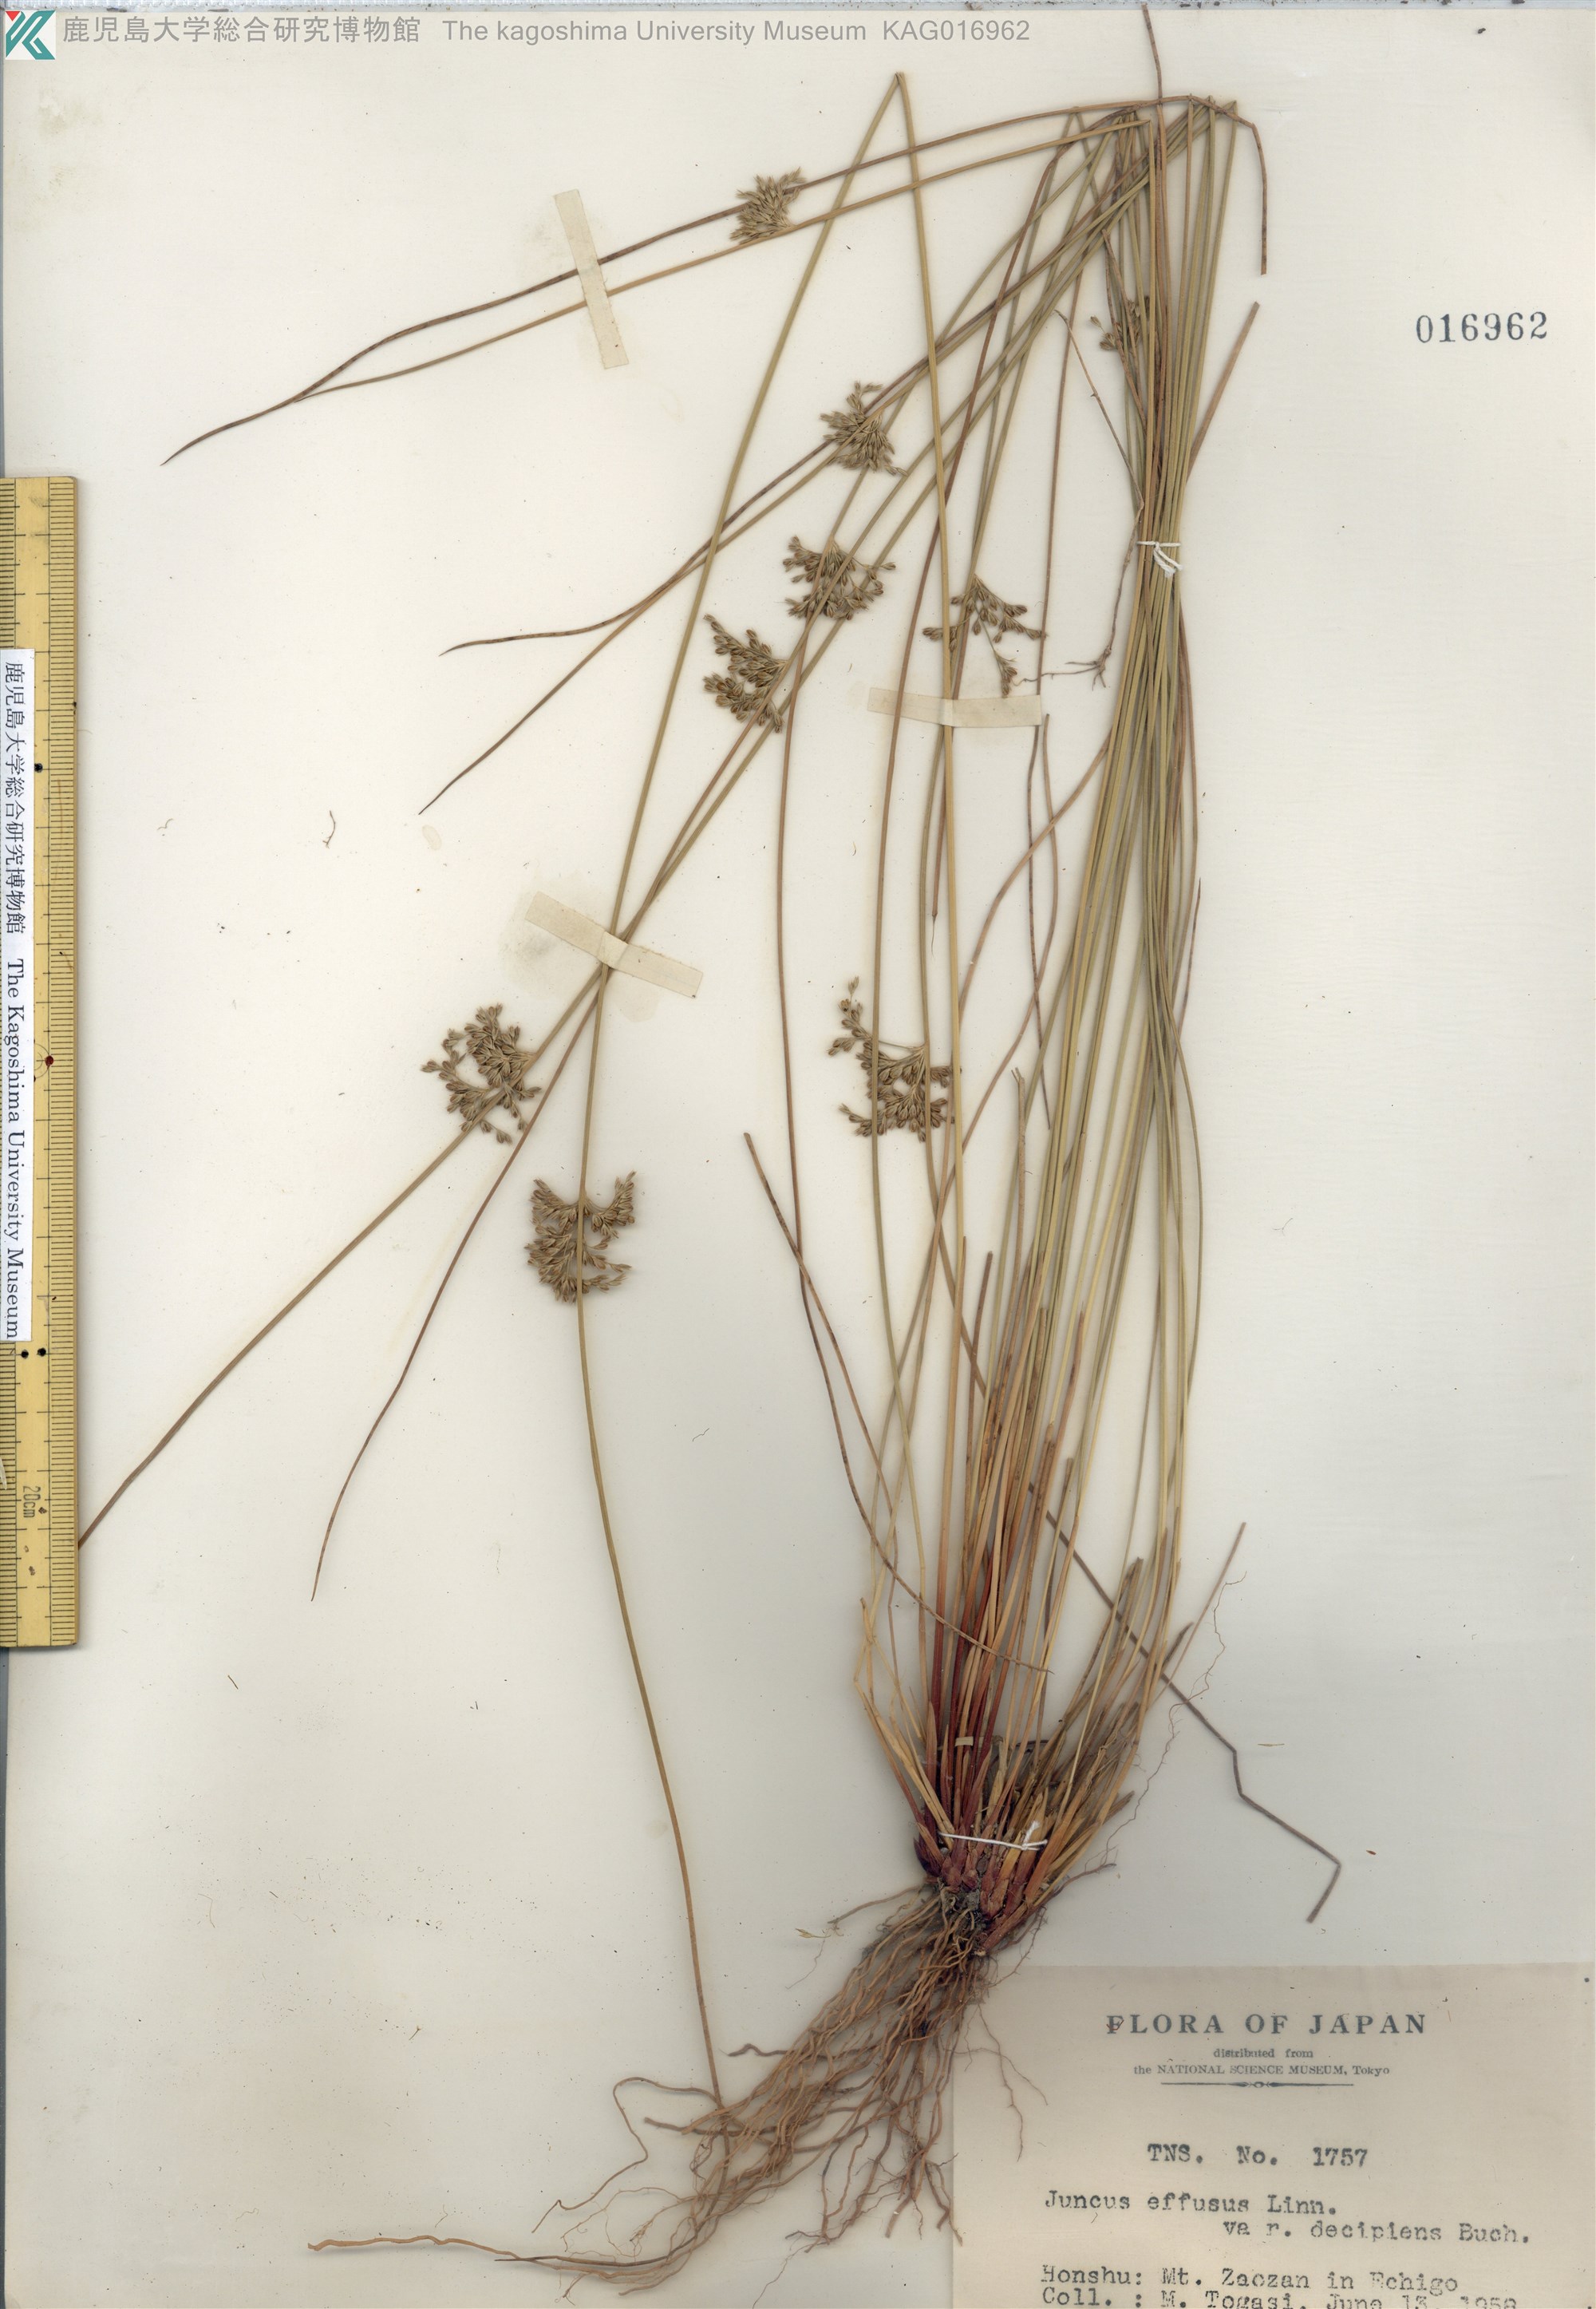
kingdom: Plantae
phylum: Tracheophyta
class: Liliopsida
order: Poales
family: Juncaceae
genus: Juncus
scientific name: Juncus decipiens
